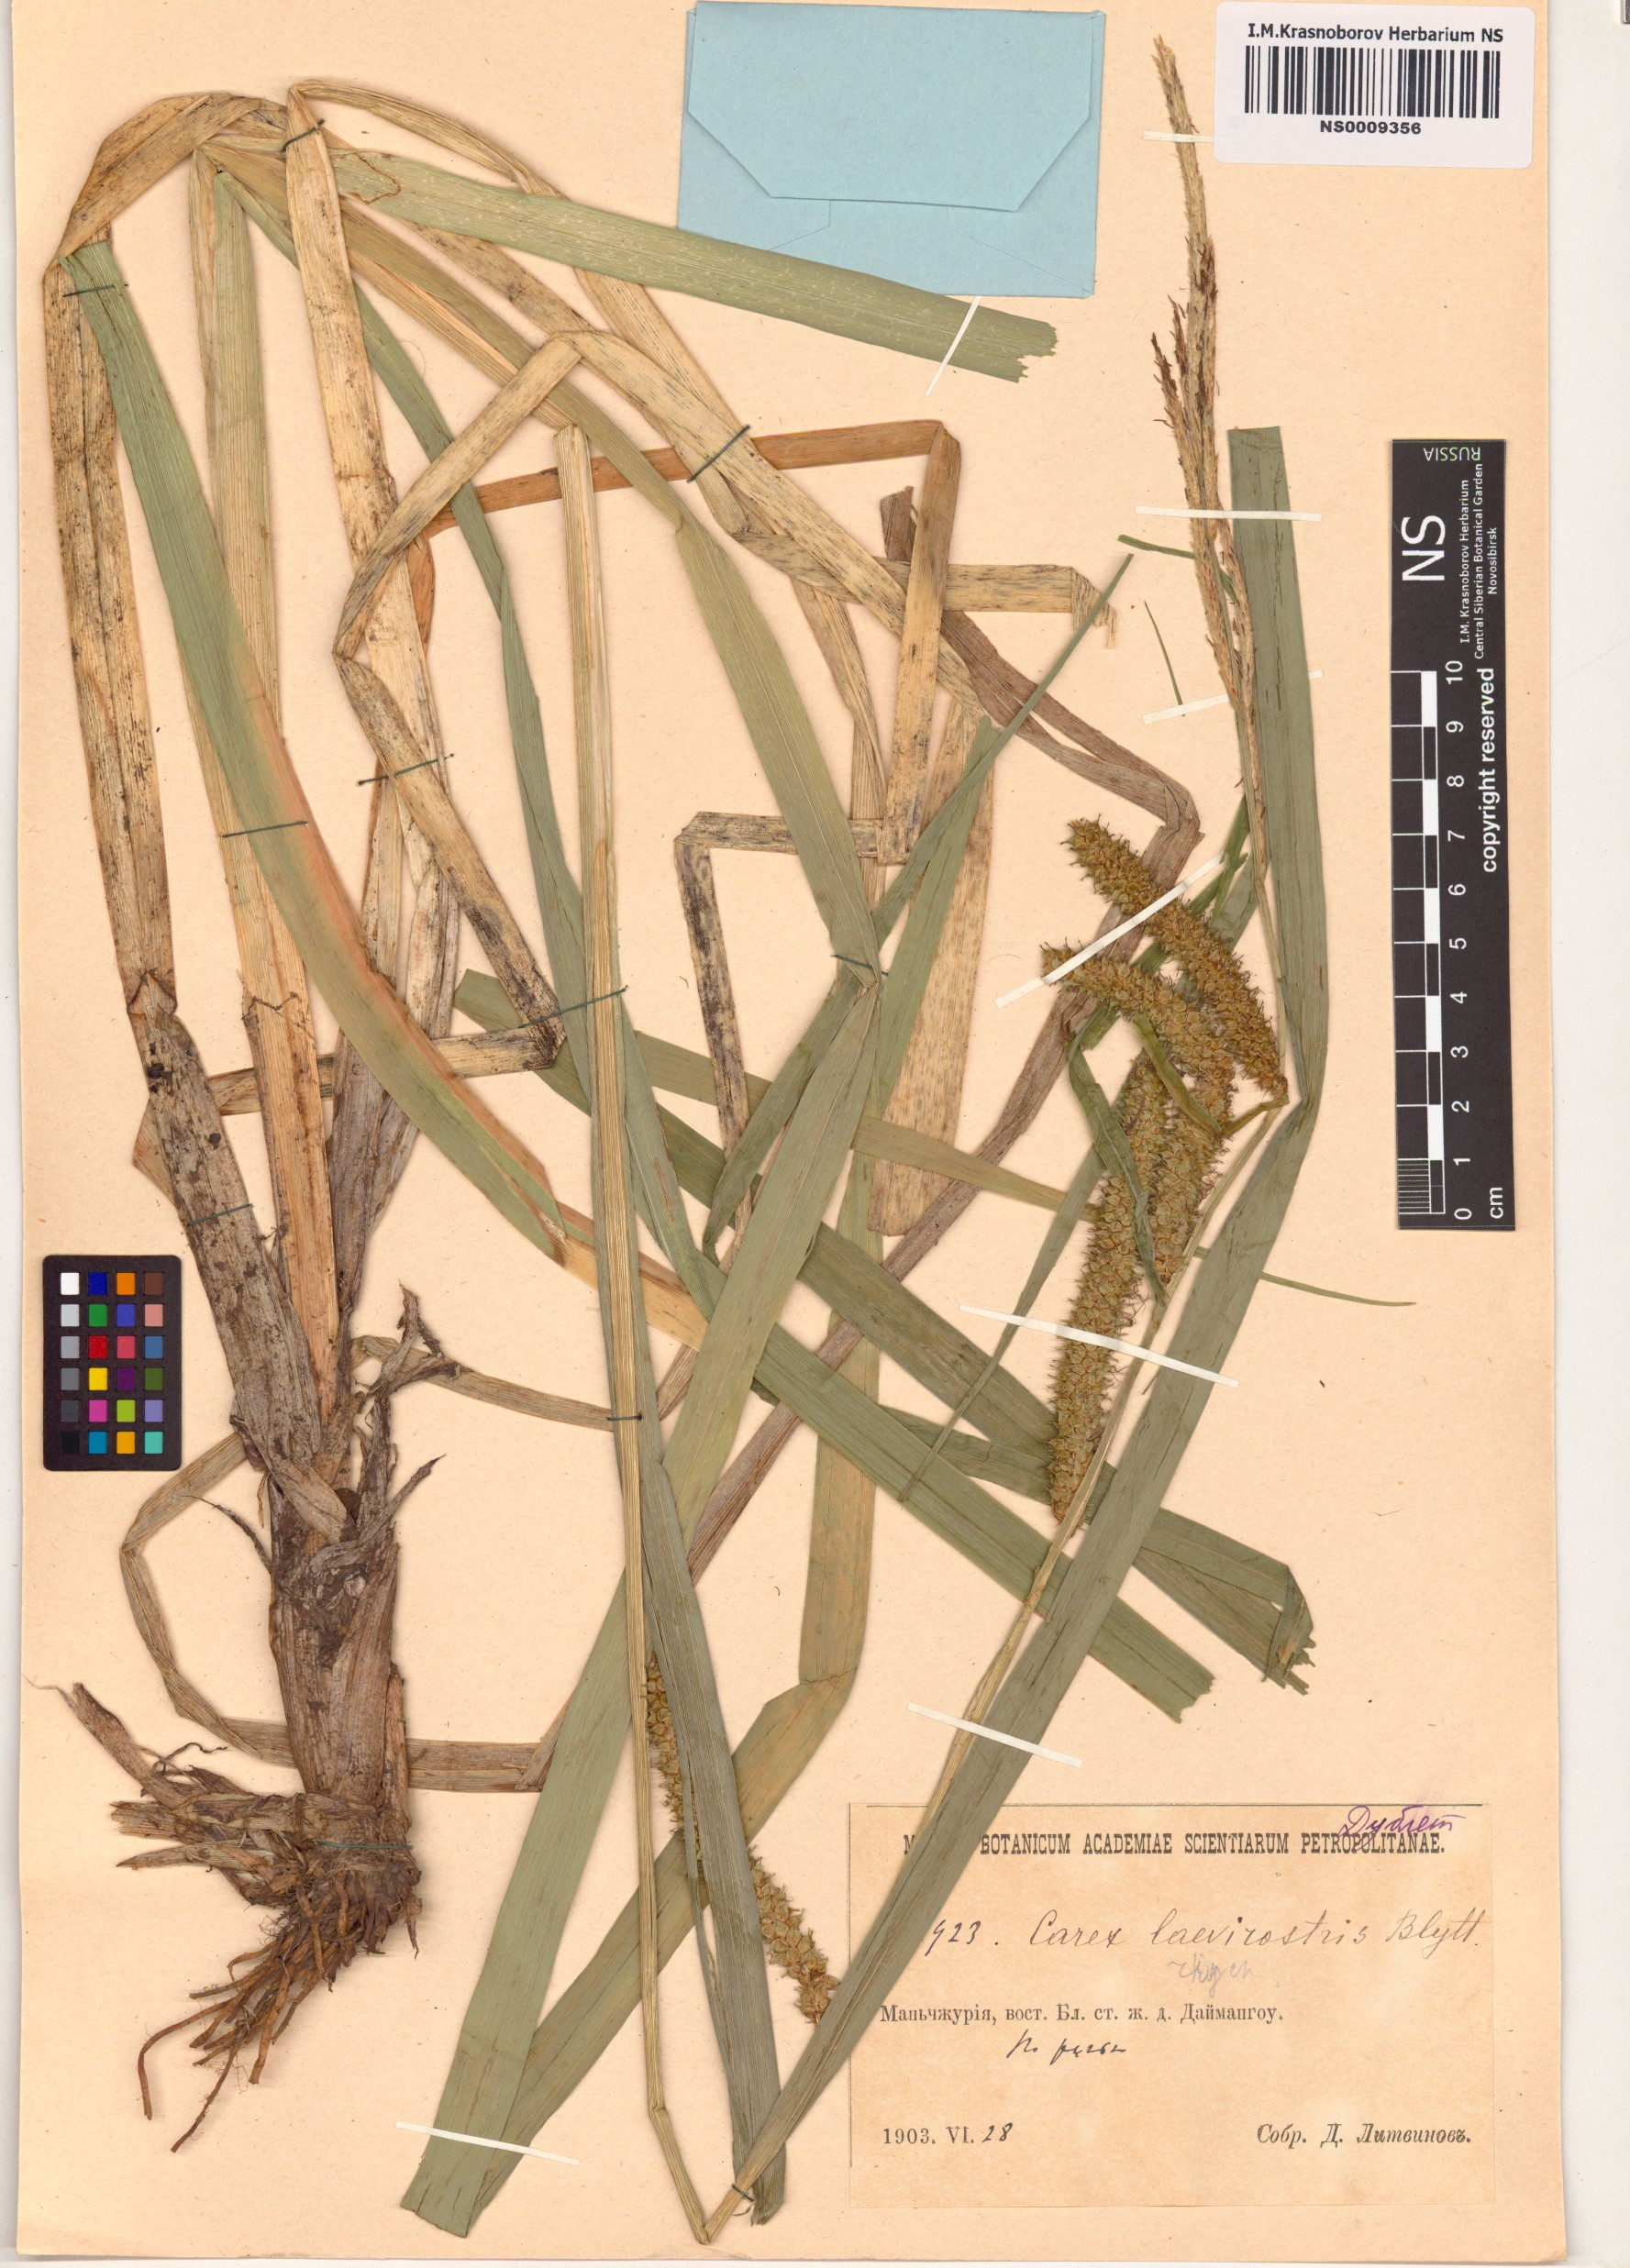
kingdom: Plantae
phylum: Tracheophyta
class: Liliopsida
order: Poales
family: Cyperaceae
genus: Carex
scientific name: Carex utriculata
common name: Beaked sedge
